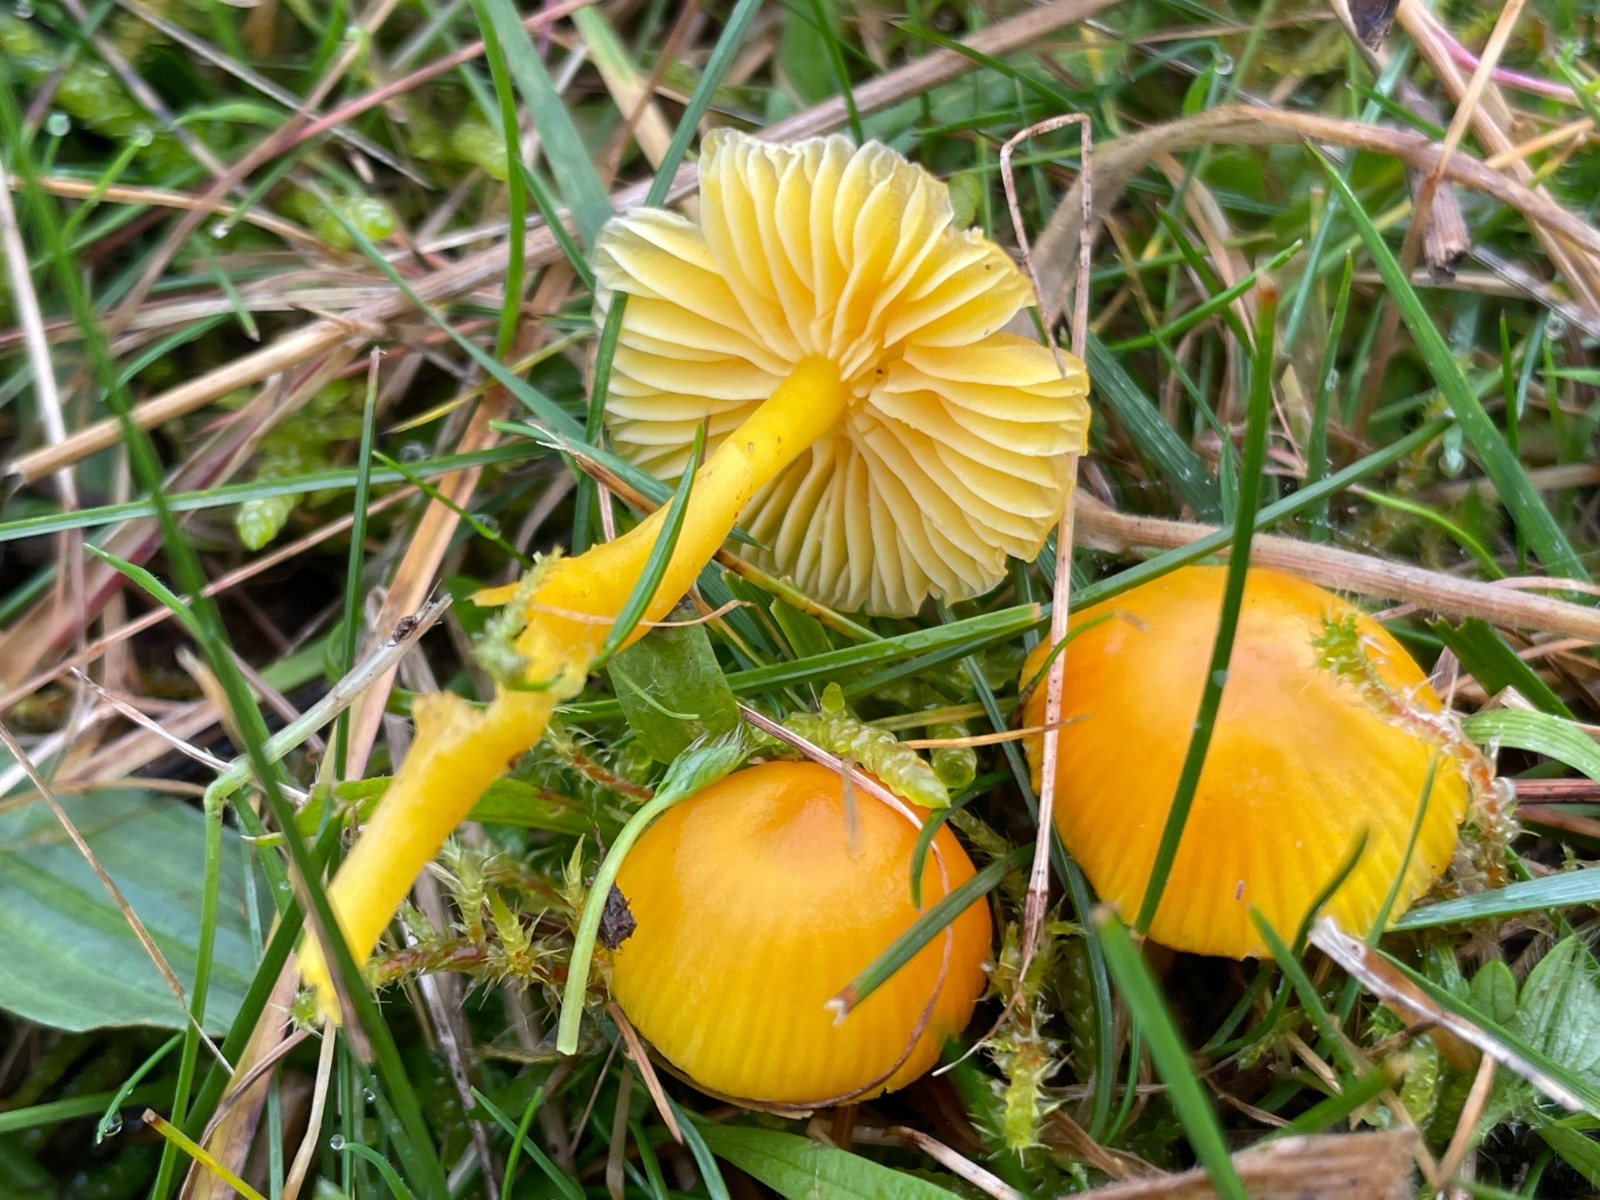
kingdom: Fungi
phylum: Basidiomycota
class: Agaricomycetes
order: Agaricales
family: Hygrophoraceae
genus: Hygrocybe
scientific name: Hygrocybe ceracea
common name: voksgul vokshat
